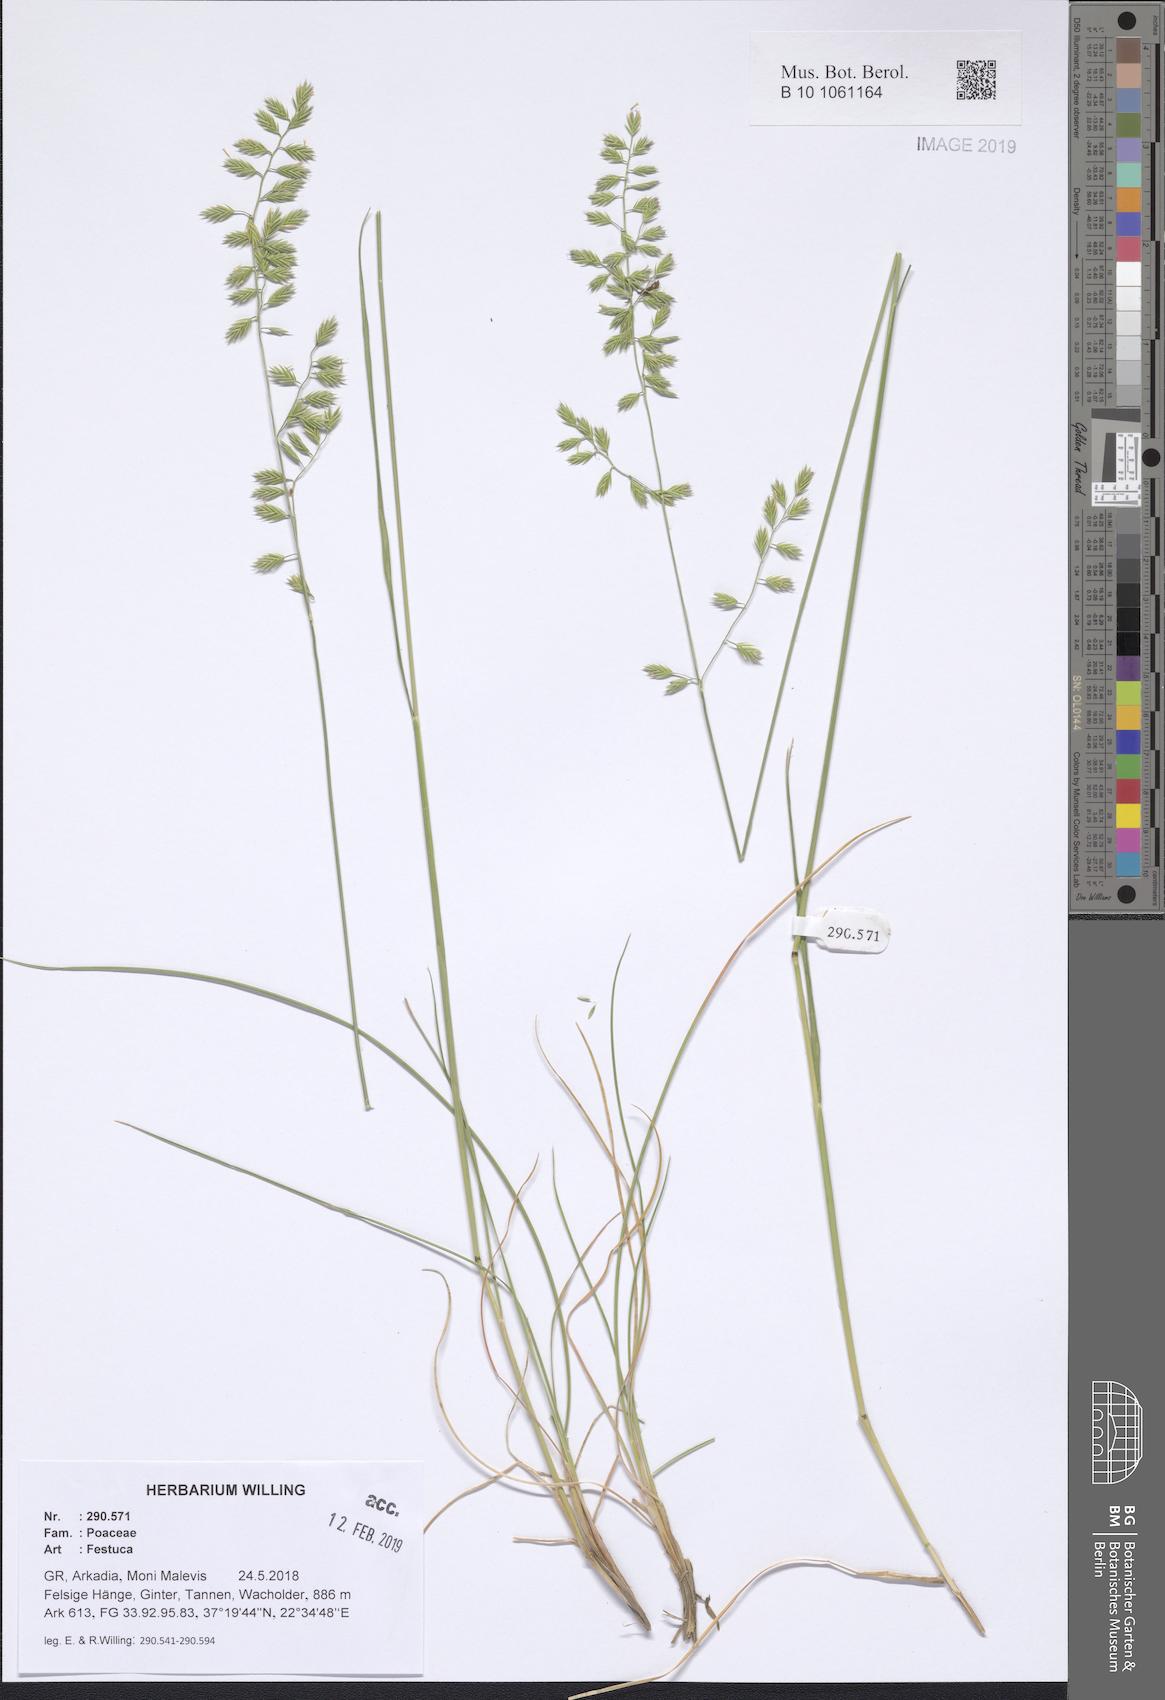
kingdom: Plantae
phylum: Tracheophyta
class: Liliopsida
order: Poales
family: Poaceae
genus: Festuca
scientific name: Festuca
